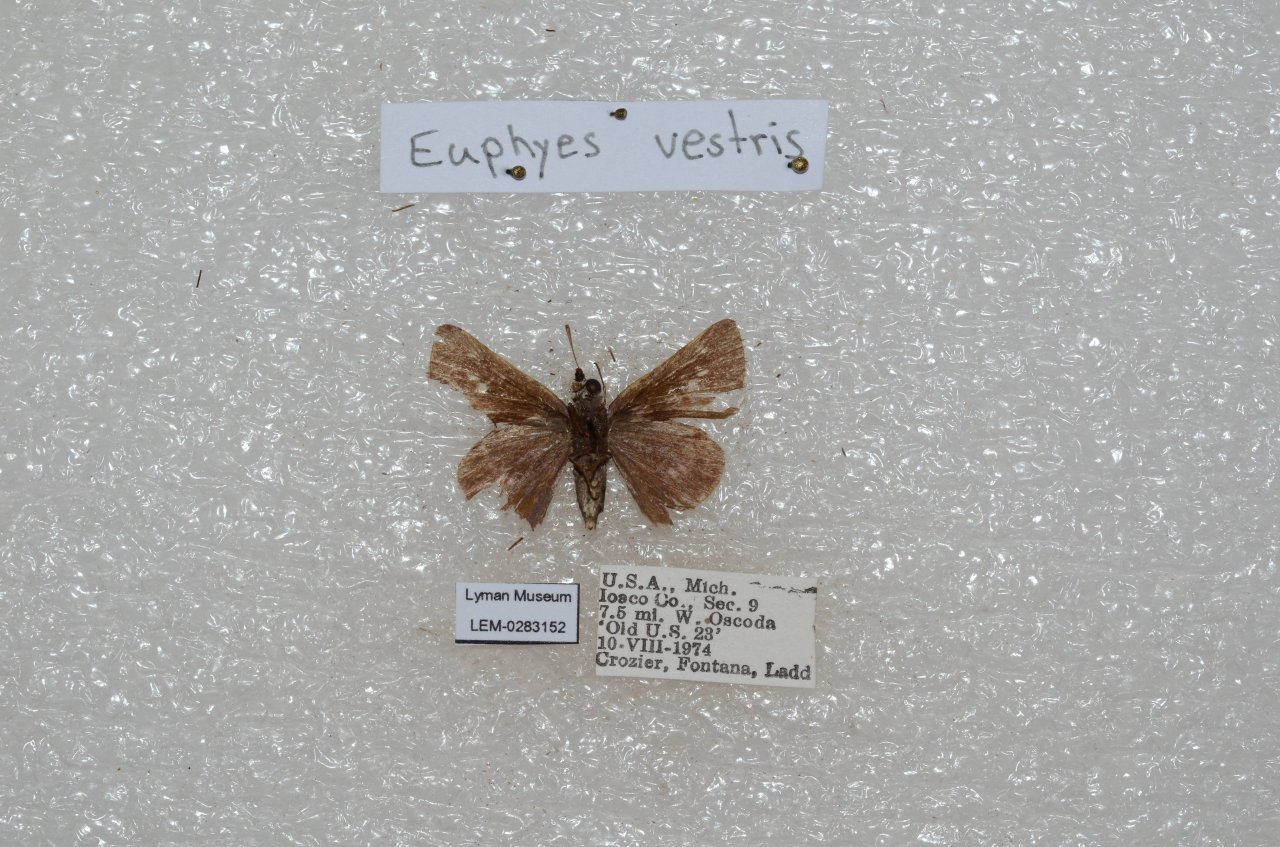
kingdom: Animalia
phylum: Arthropoda
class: Insecta
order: Lepidoptera
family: Hesperiidae
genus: Euphyes
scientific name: Euphyes vestris
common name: Dun Skipper
